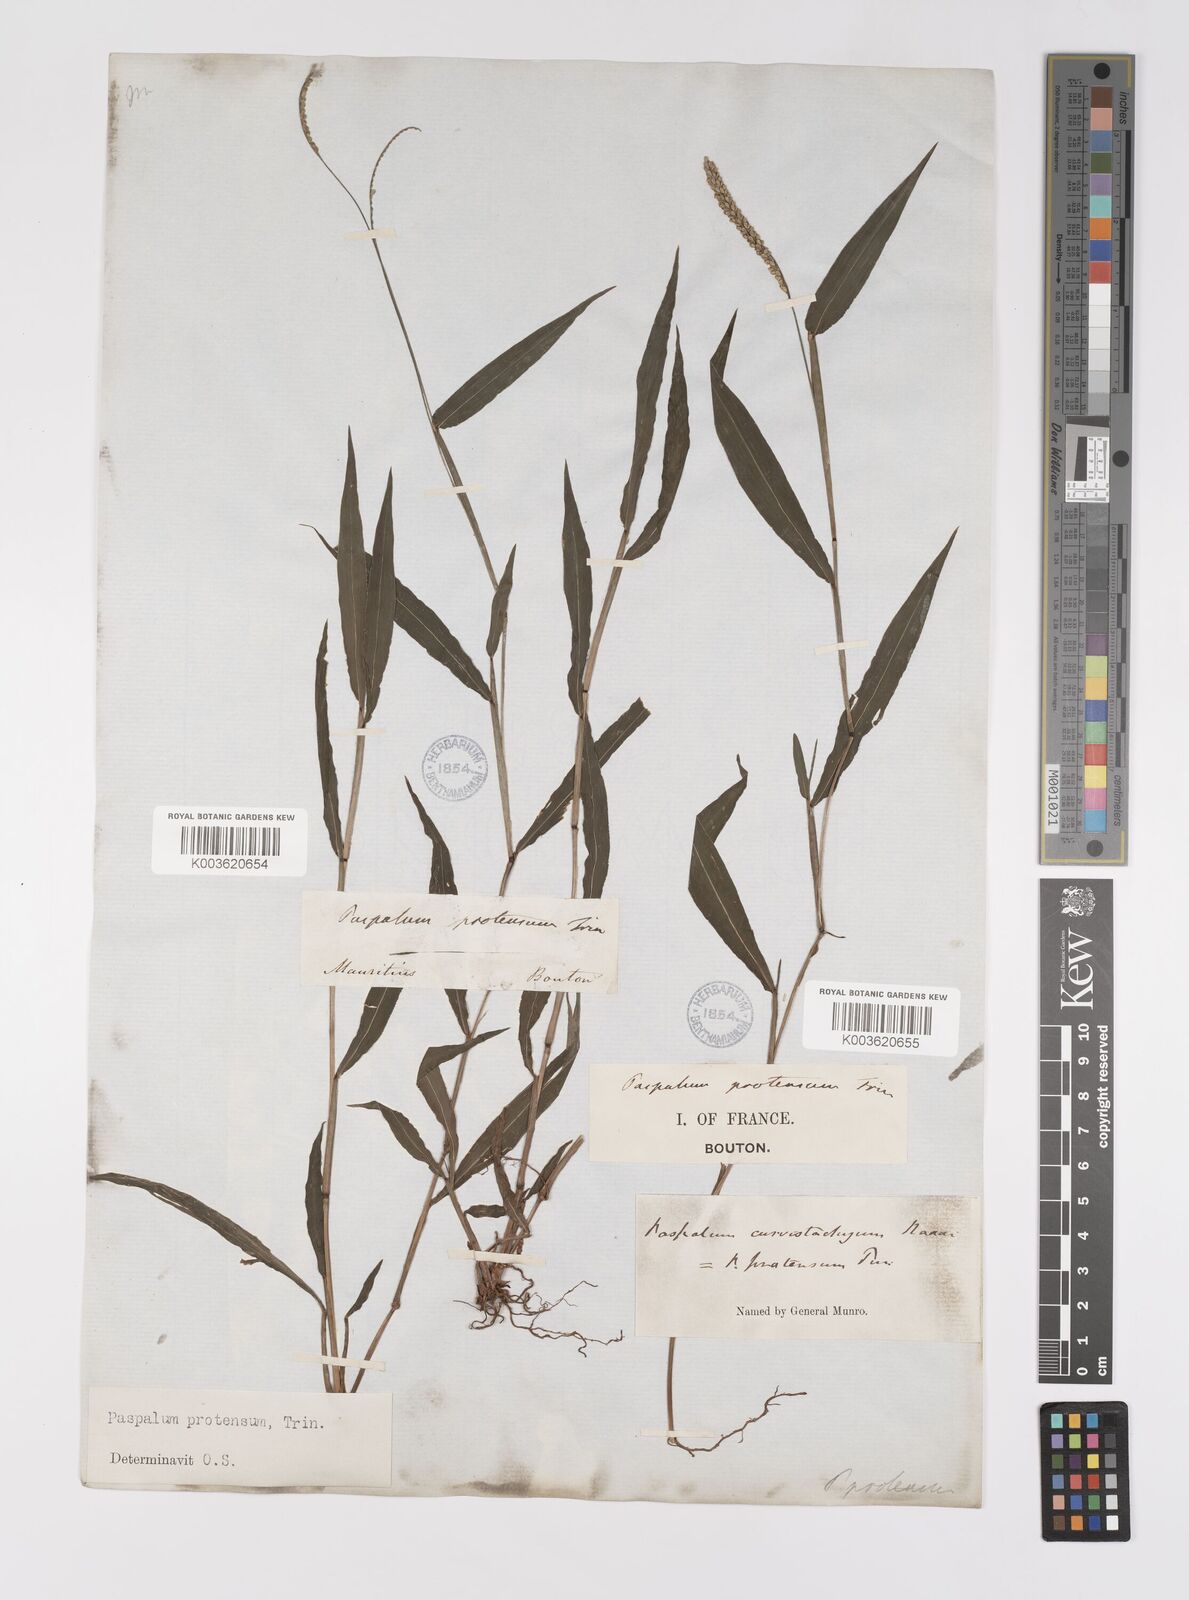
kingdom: Plantae
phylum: Tracheophyta
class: Liliopsida
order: Poales
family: Poaceae
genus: Paspalum
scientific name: Paspalum nutans
